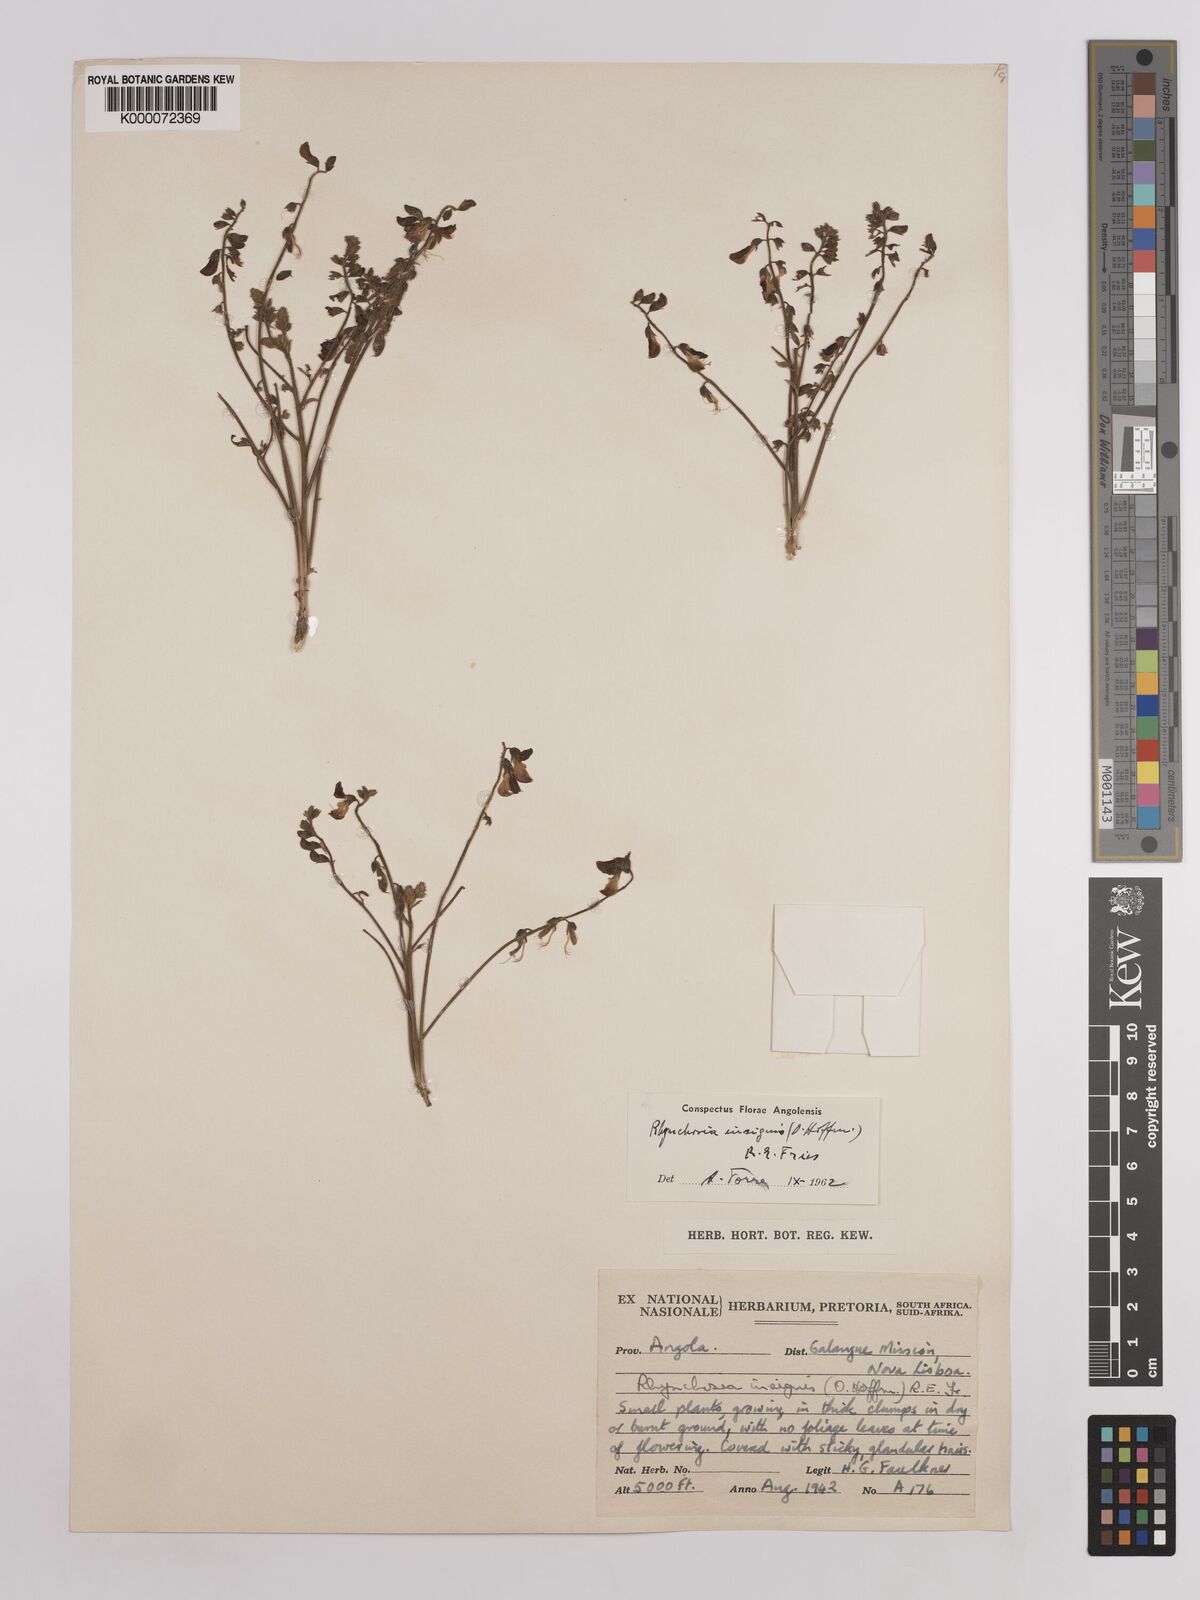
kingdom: Plantae
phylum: Tracheophyta
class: Magnoliopsida
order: Fabales
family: Fabaceae
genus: Rhynchosia
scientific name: Rhynchosia insignis
